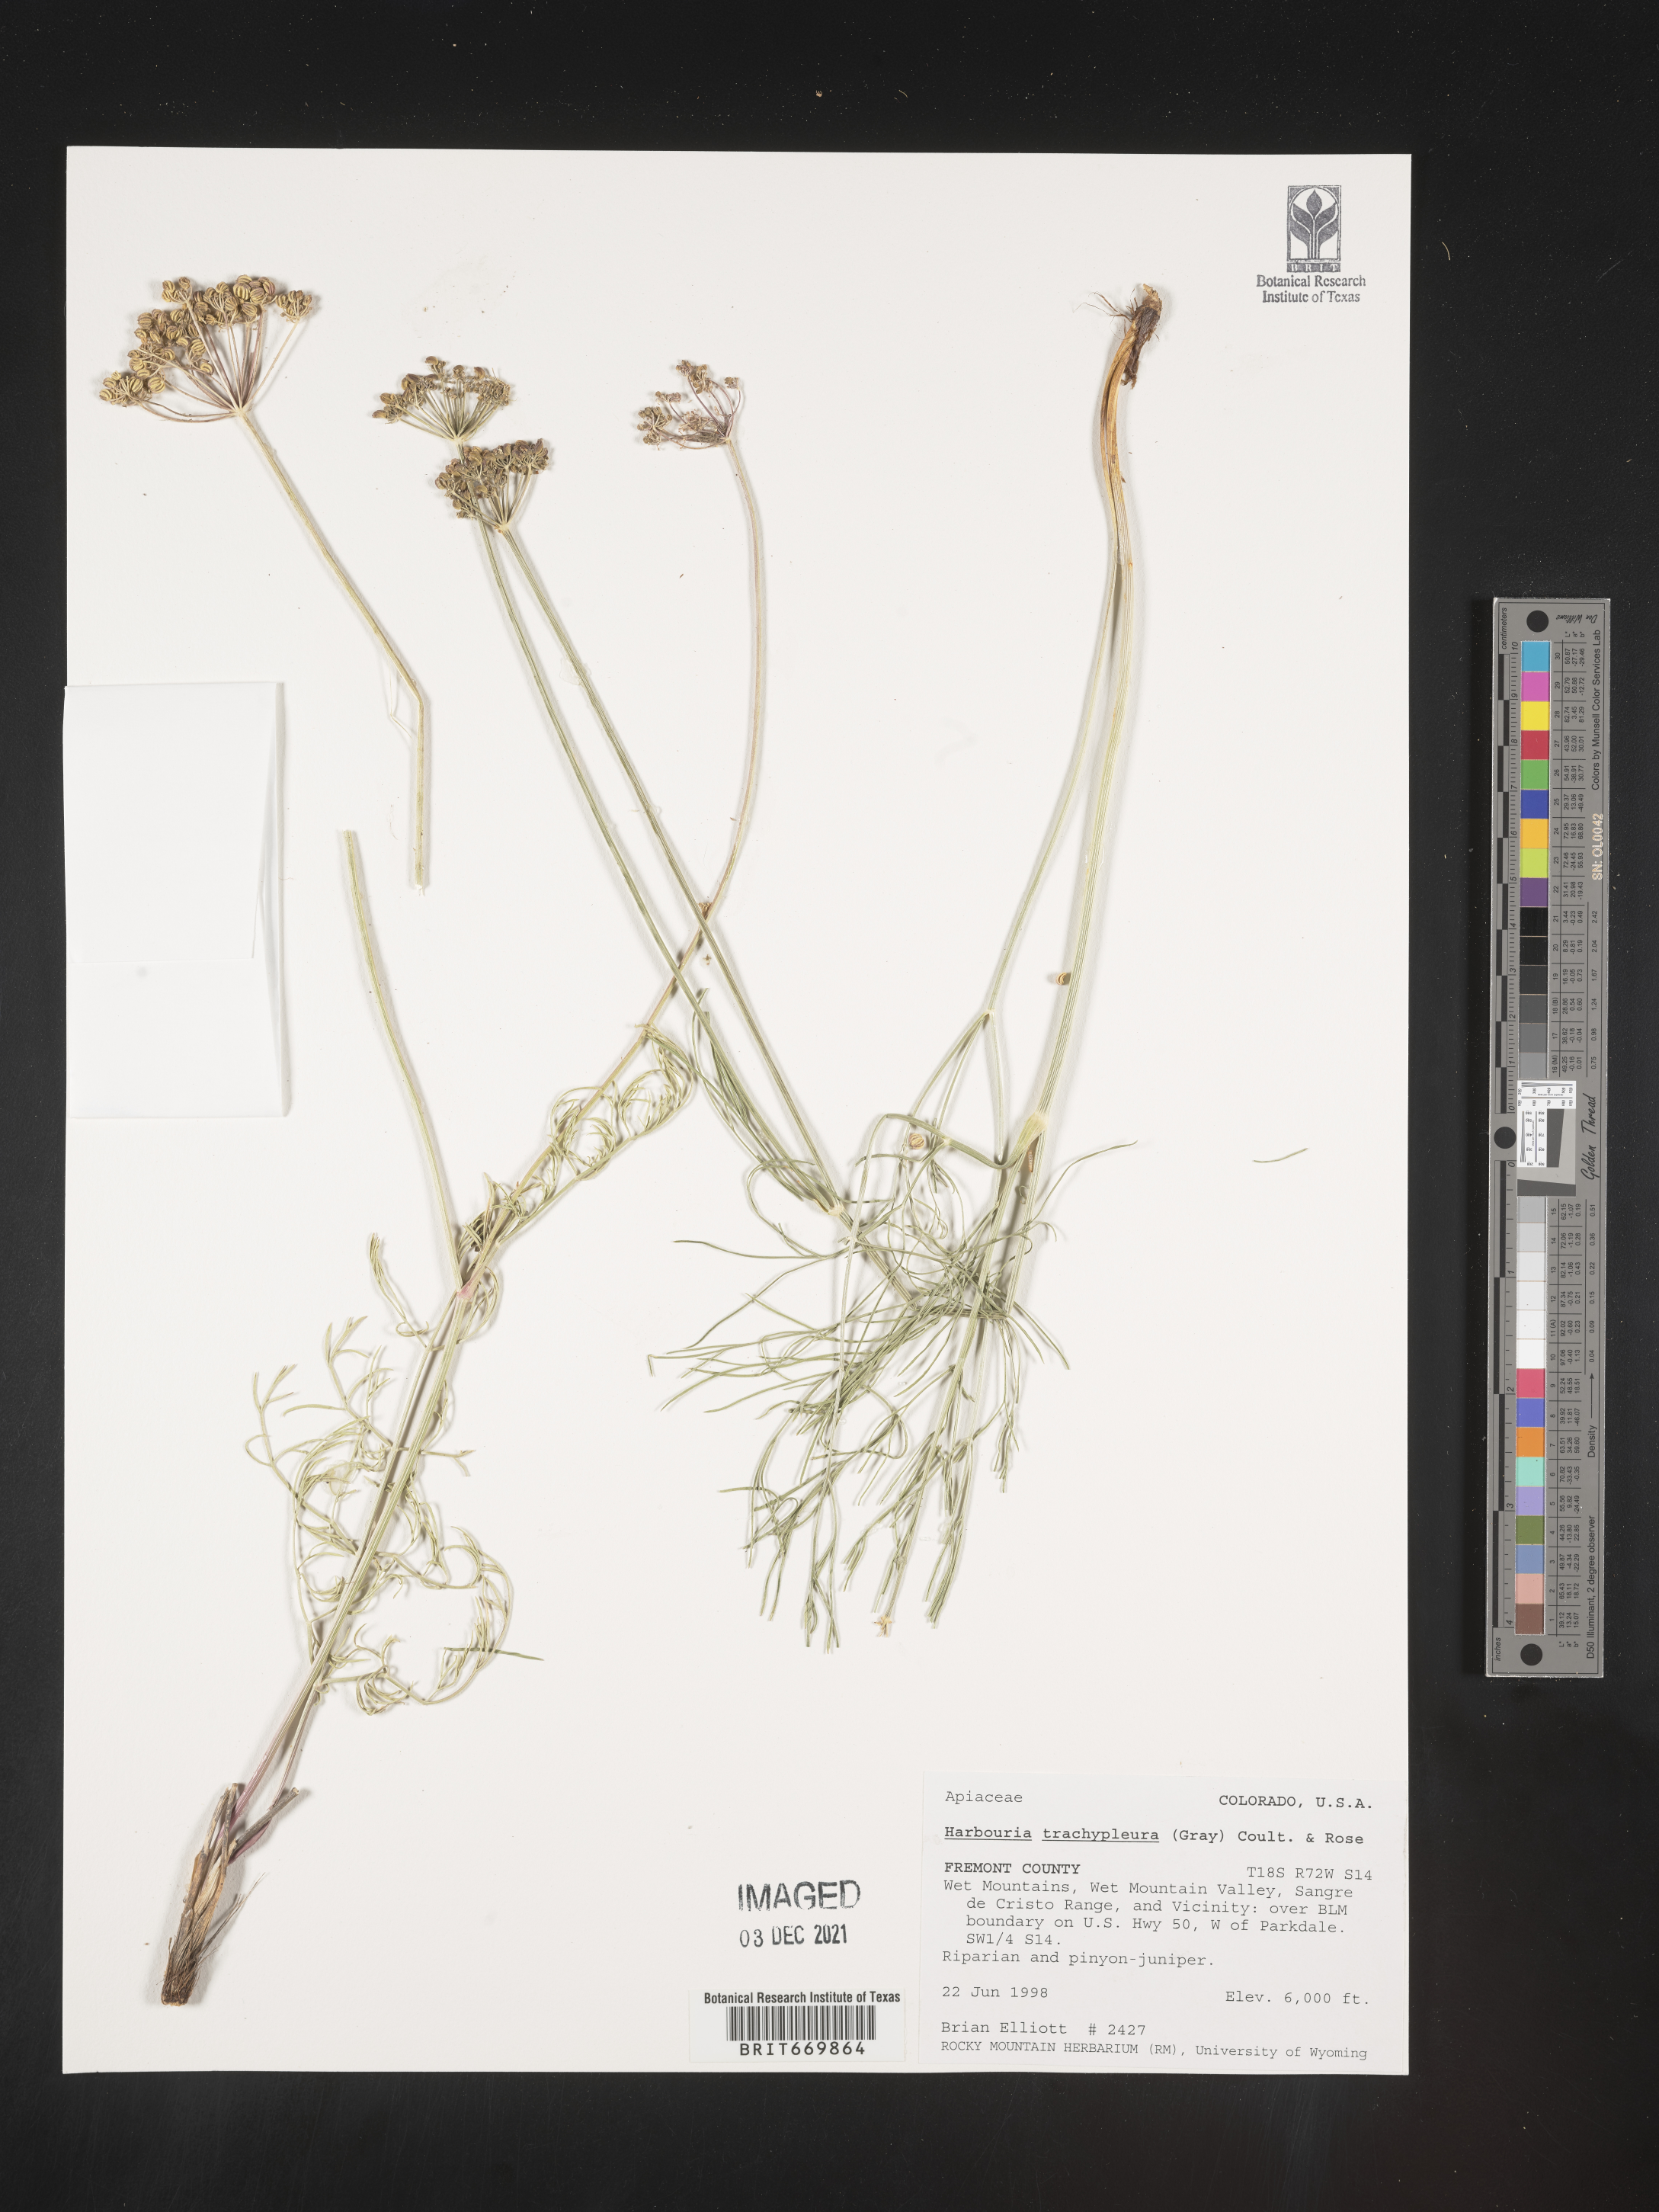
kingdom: Plantae
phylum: Tracheophyta
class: Magnoliopsida
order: Apiales
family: Apiaceae
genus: Harbouria
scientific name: Harbouria
